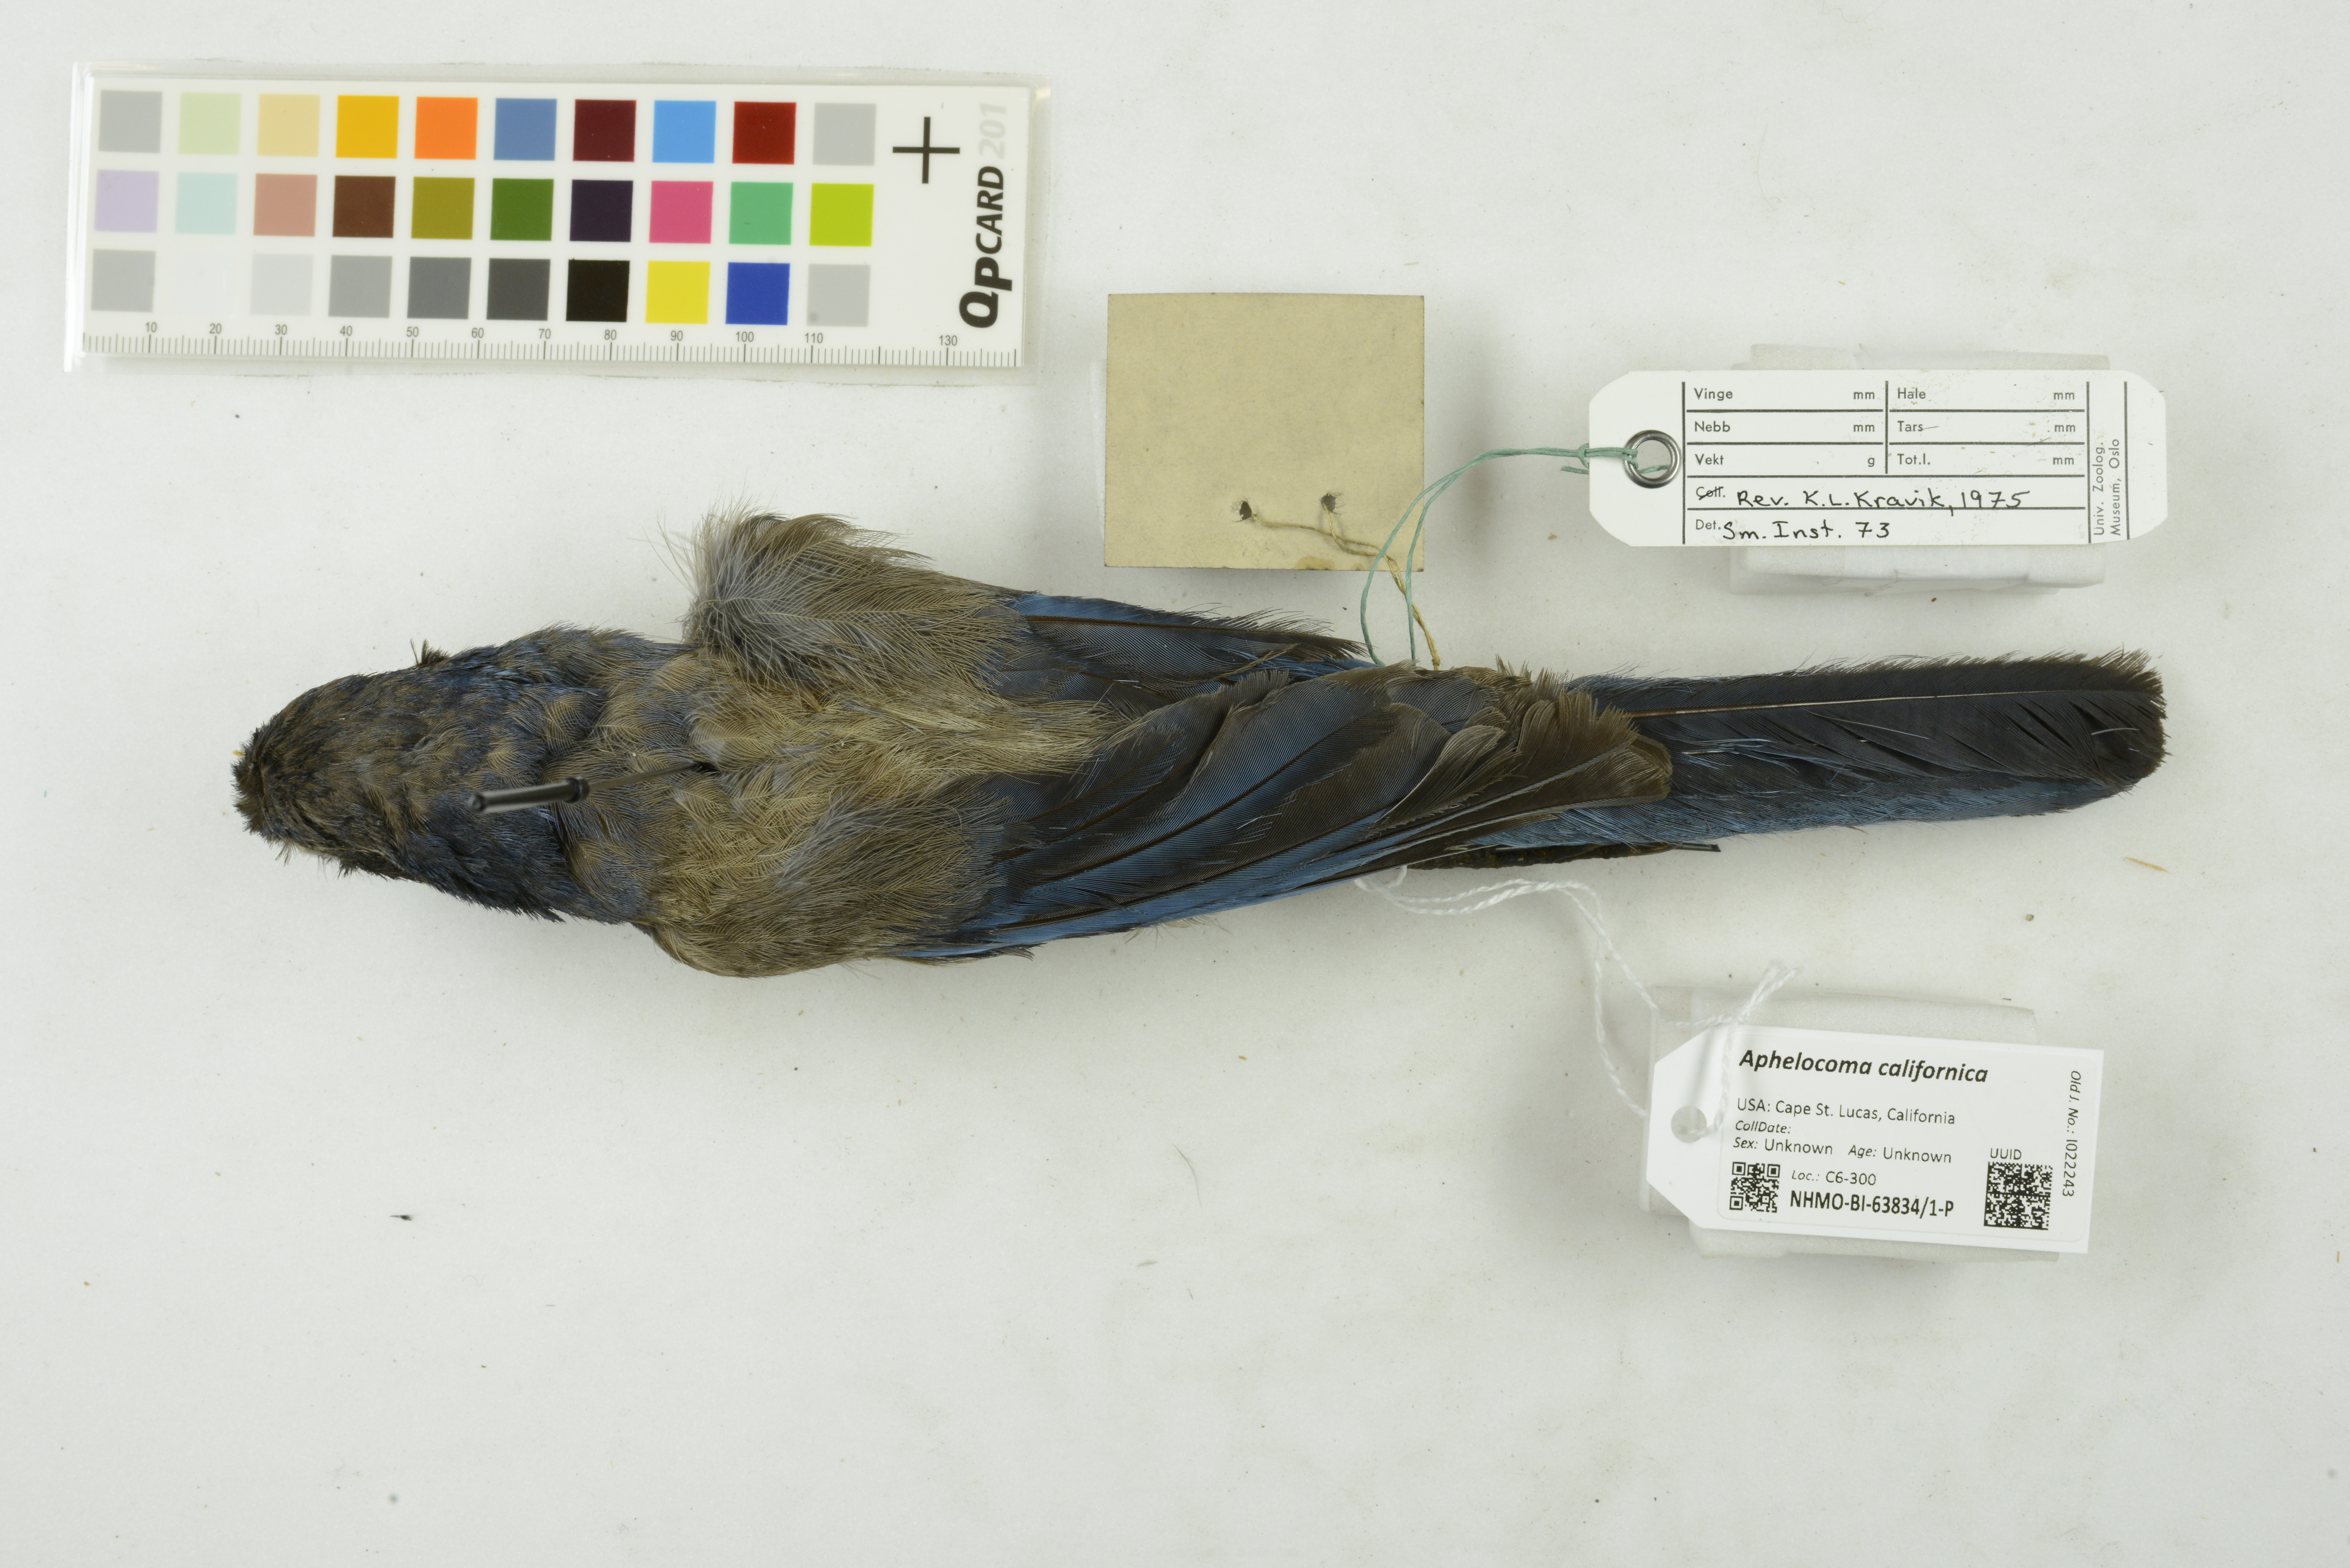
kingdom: Animalia
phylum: Chordata
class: Aves
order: Passeriformes
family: Corvidae
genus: Aphelocoma
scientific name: Aphelocoma californica
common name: California scrub-jay
